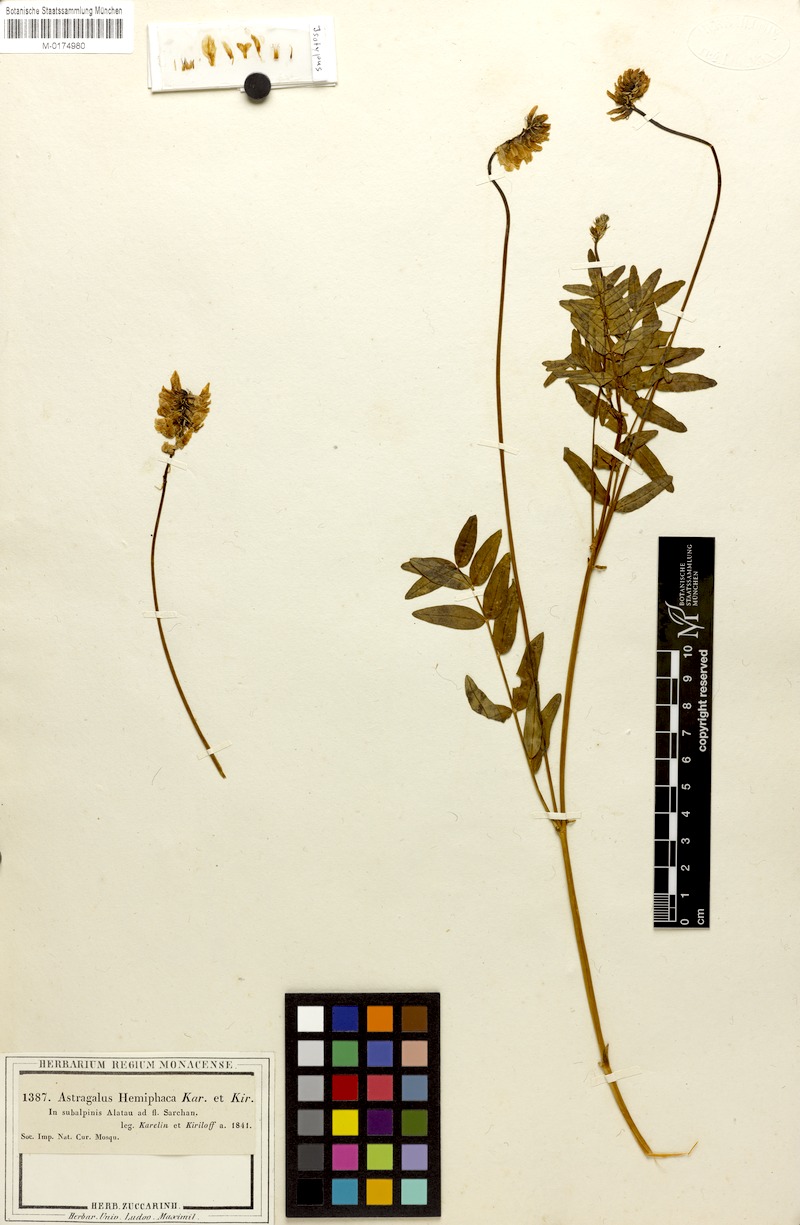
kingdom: Plantae
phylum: Tracheophyta
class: Magnoliopsida
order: Fabales
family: Fabaceae
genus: Astragalus
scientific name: Astragalus hemiphaca
